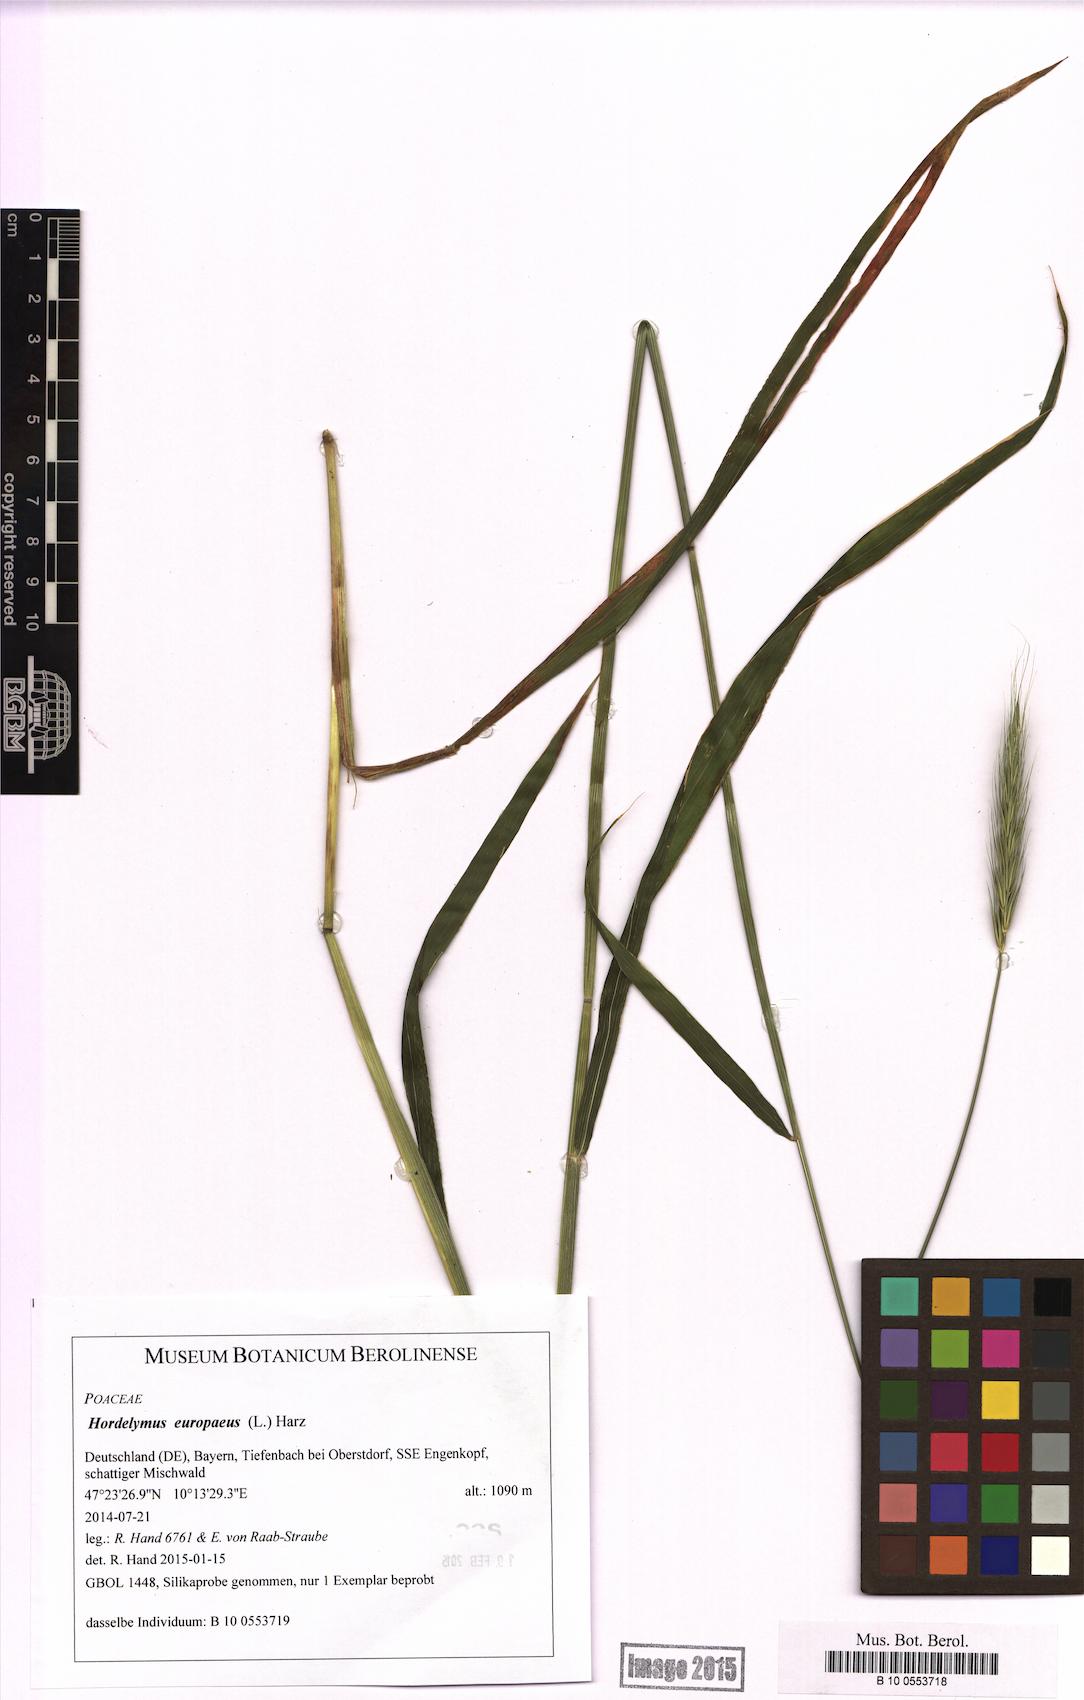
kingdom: Plantae
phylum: Tracheophyta
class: Liliopsida
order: Poales
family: Poaceae
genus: Hordelymus
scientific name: Hordelymus europaeus
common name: Wood-barley
